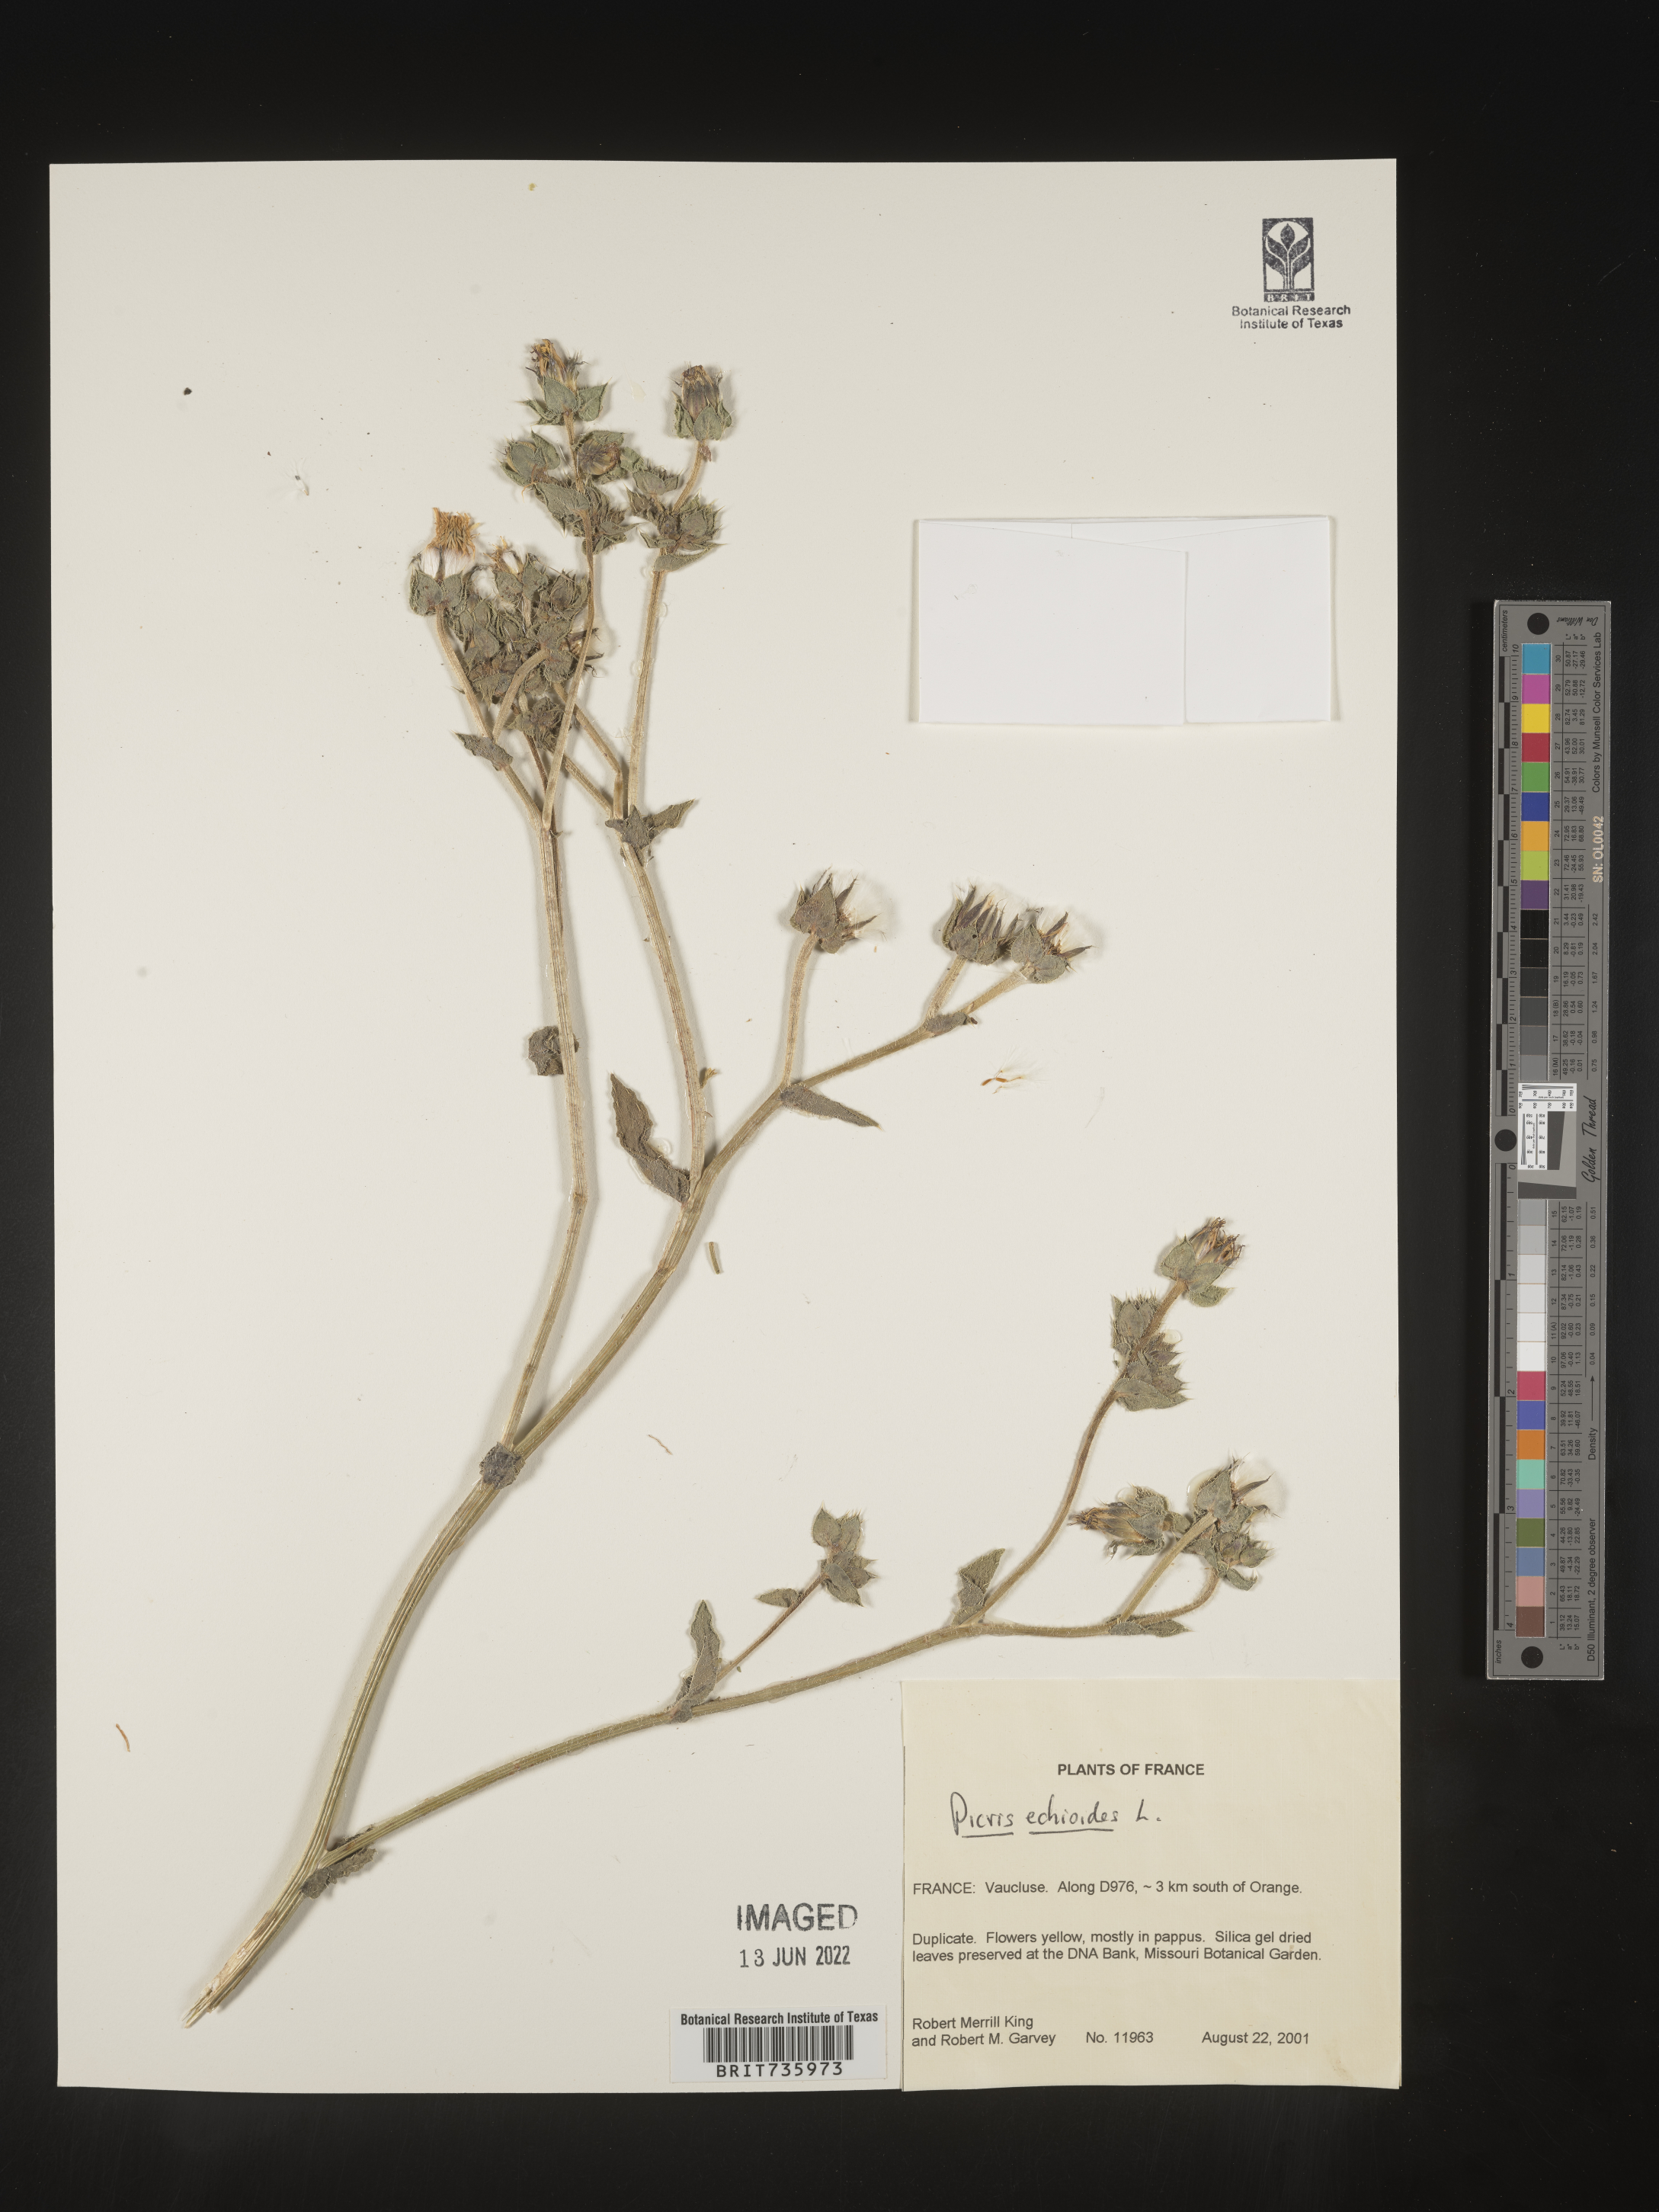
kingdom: Plantae
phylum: Tracheophyta
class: Magnoliopsida
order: Asterales
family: Asteraceae
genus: Picris
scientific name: Picris
